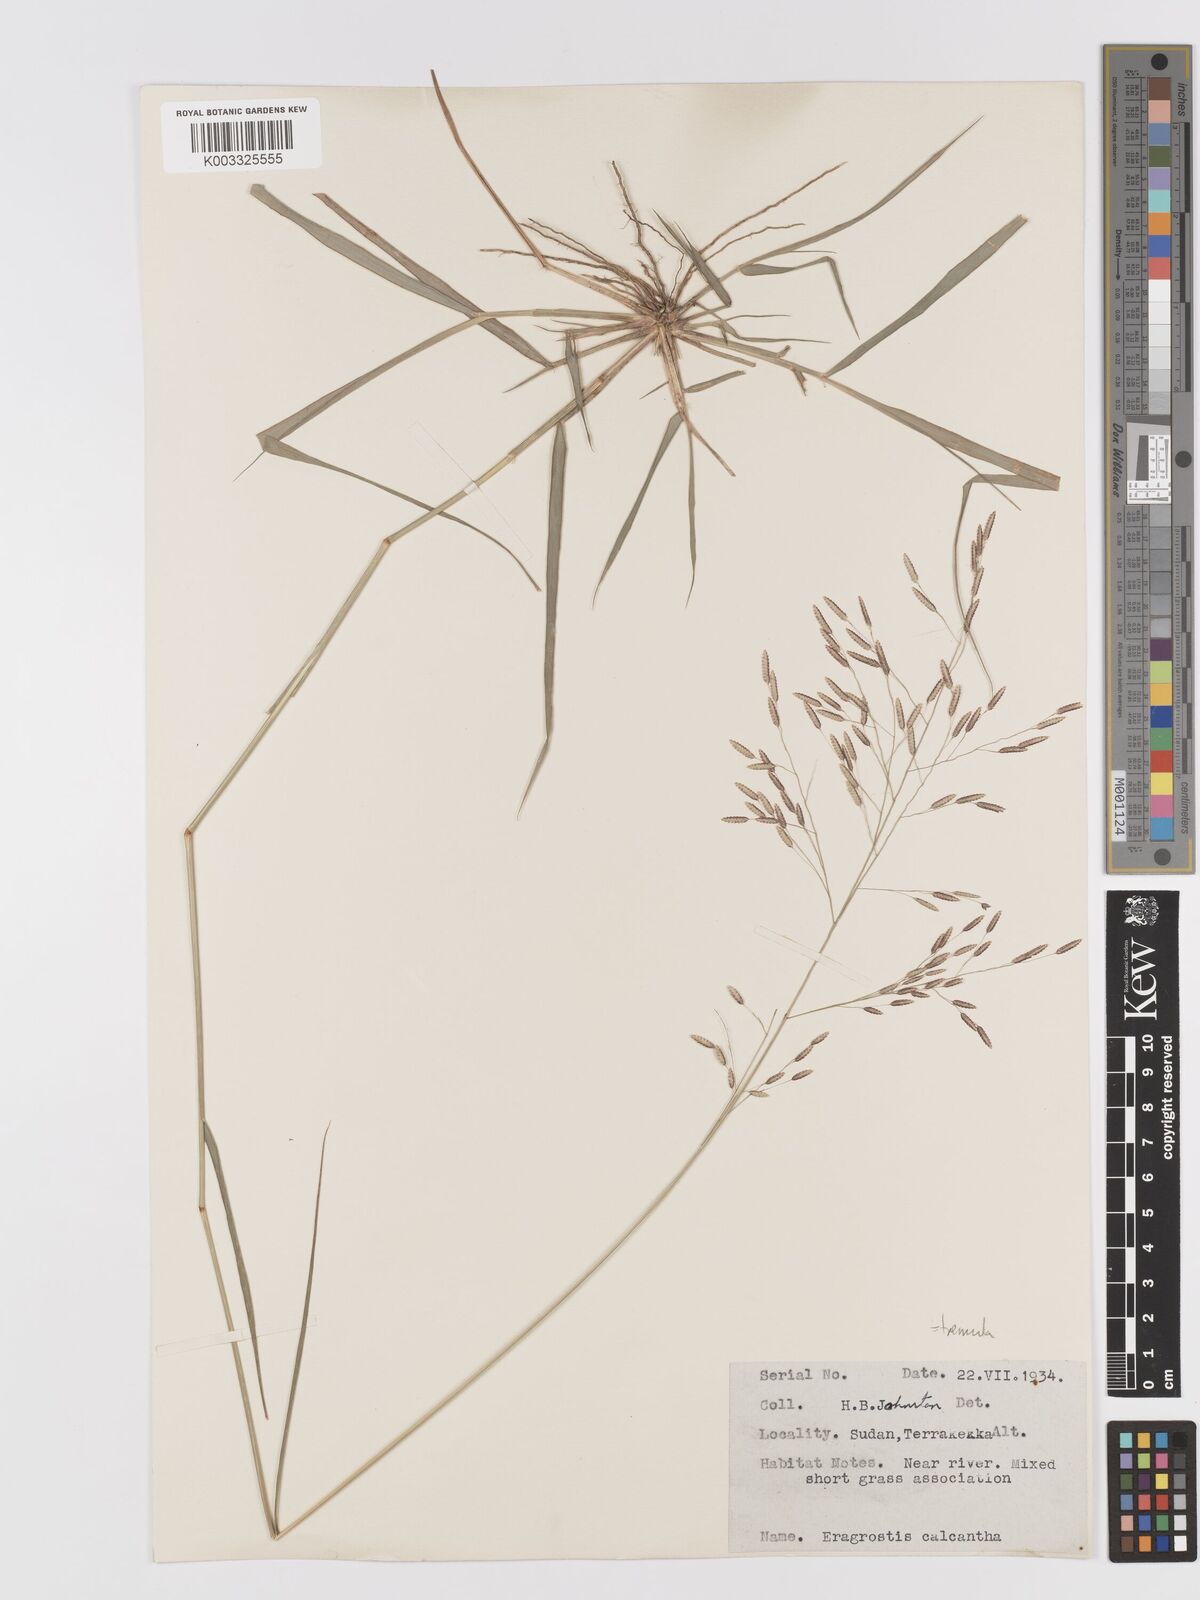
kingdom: Plantae
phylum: Tracheophyta
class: Liliopsida
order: Poales
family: Poaceae
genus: Eragrostis
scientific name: Eragrostis tremula
